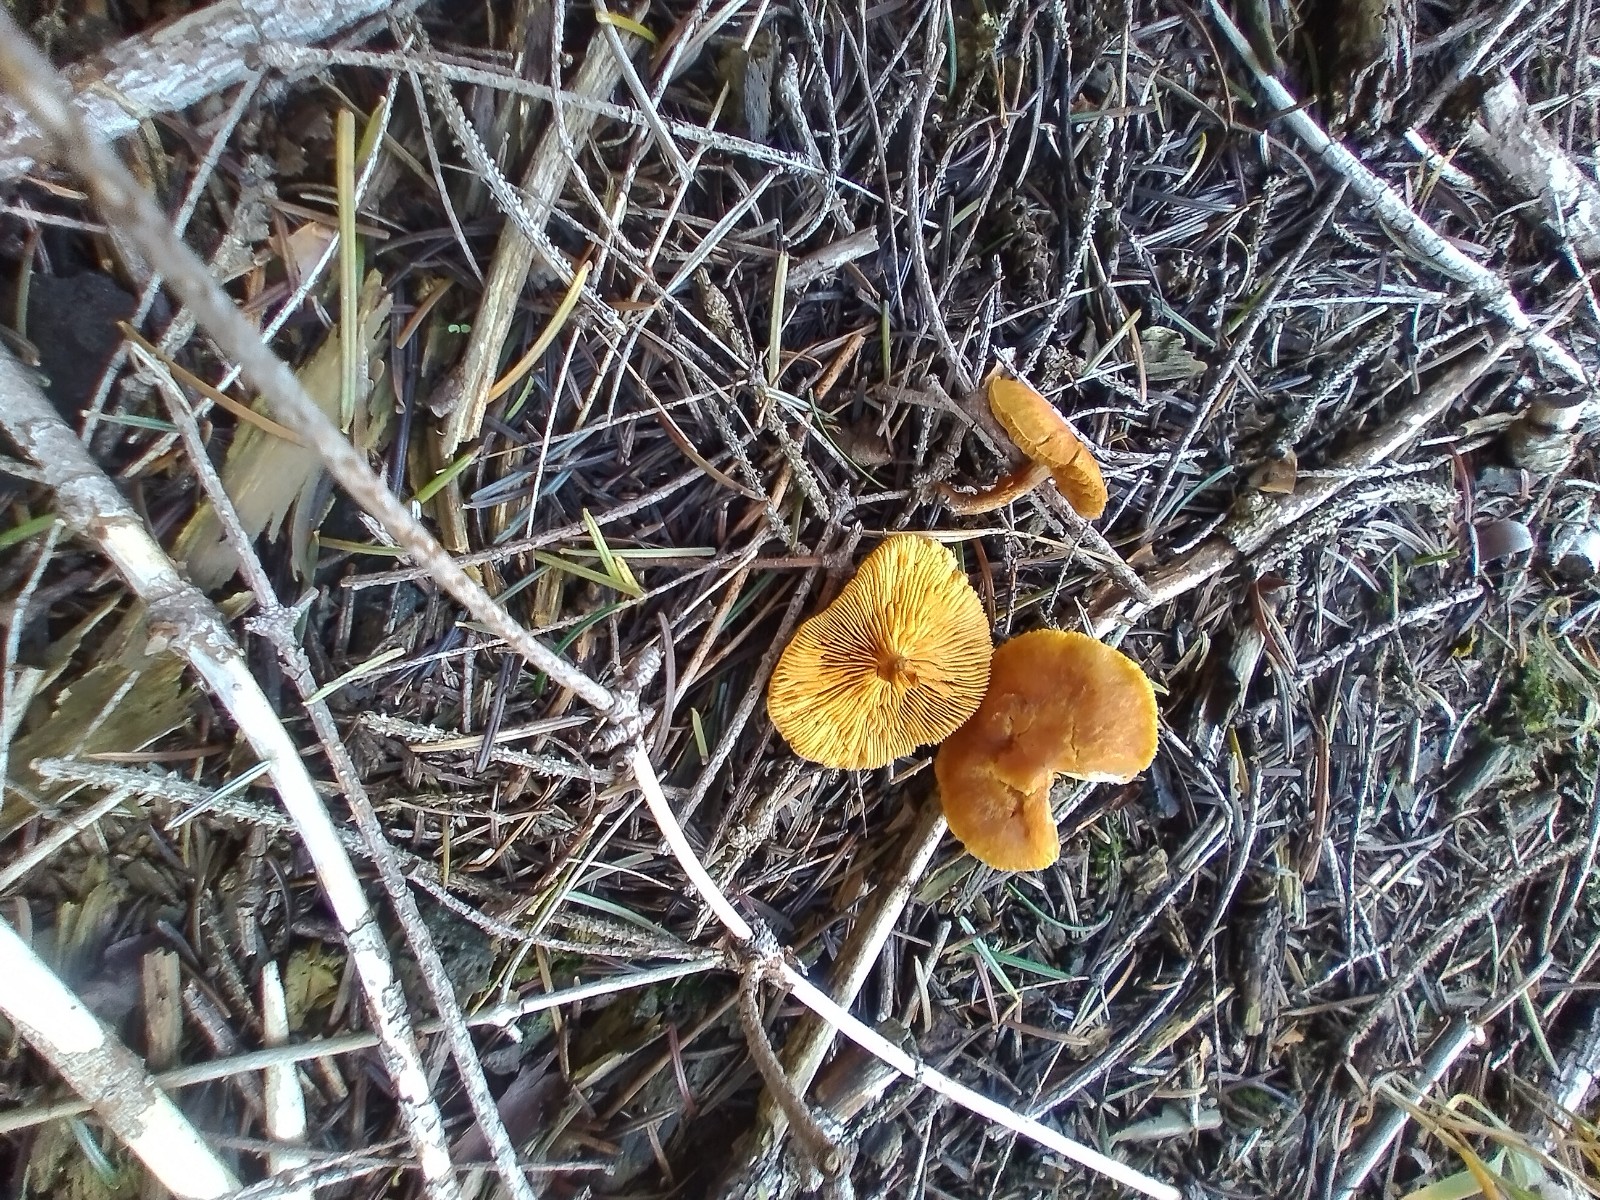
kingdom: Fungi
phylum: Basidiomycota
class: Agaricomycetes
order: Agaricales
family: Hymenogastraceae
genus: Gymnopilus
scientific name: Gymnopilus penetrans
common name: plettet flammehat
